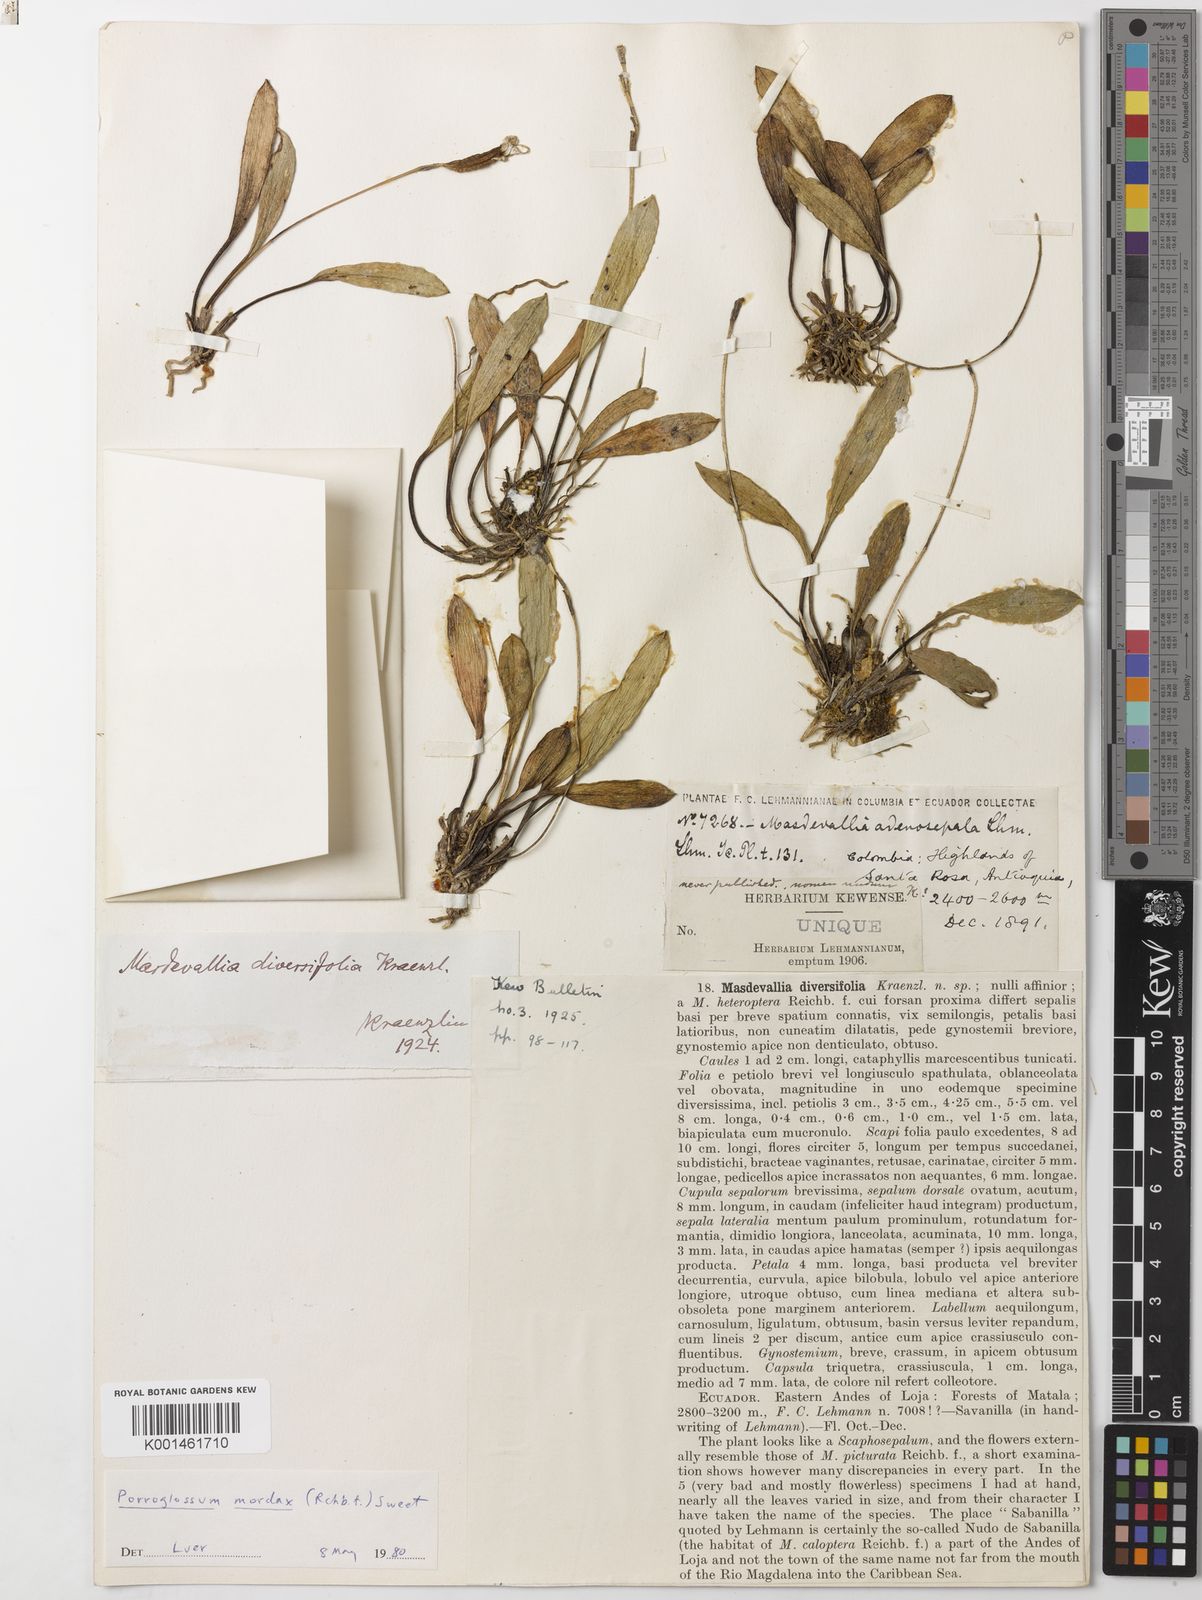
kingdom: Plantae
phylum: Tracheophyta
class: Liliopsida
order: Asparagales
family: Orchidaceae
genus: Porroglossum
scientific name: Porroglossum mordax
